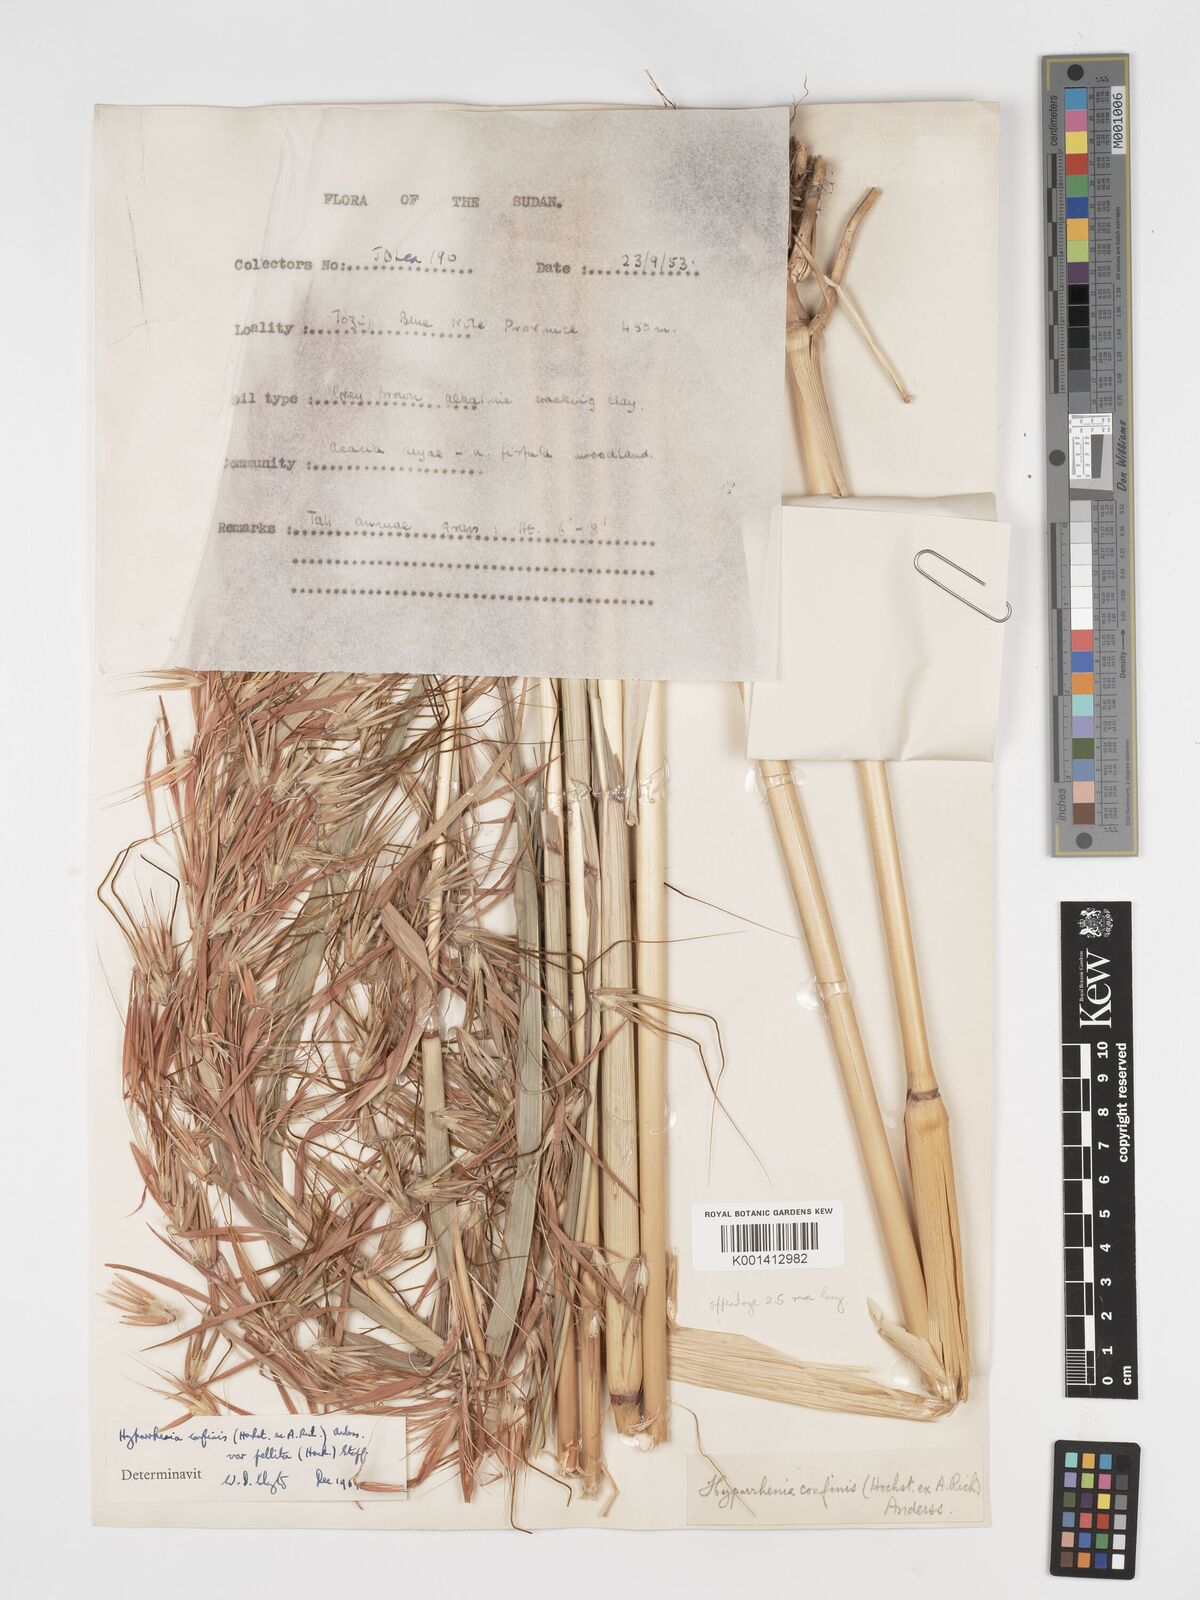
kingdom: Plantae
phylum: Tracheophyta
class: Liliopsida
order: Poales
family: Poaceae
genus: Hyparrhenia
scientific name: Hyparrhenia confinis
